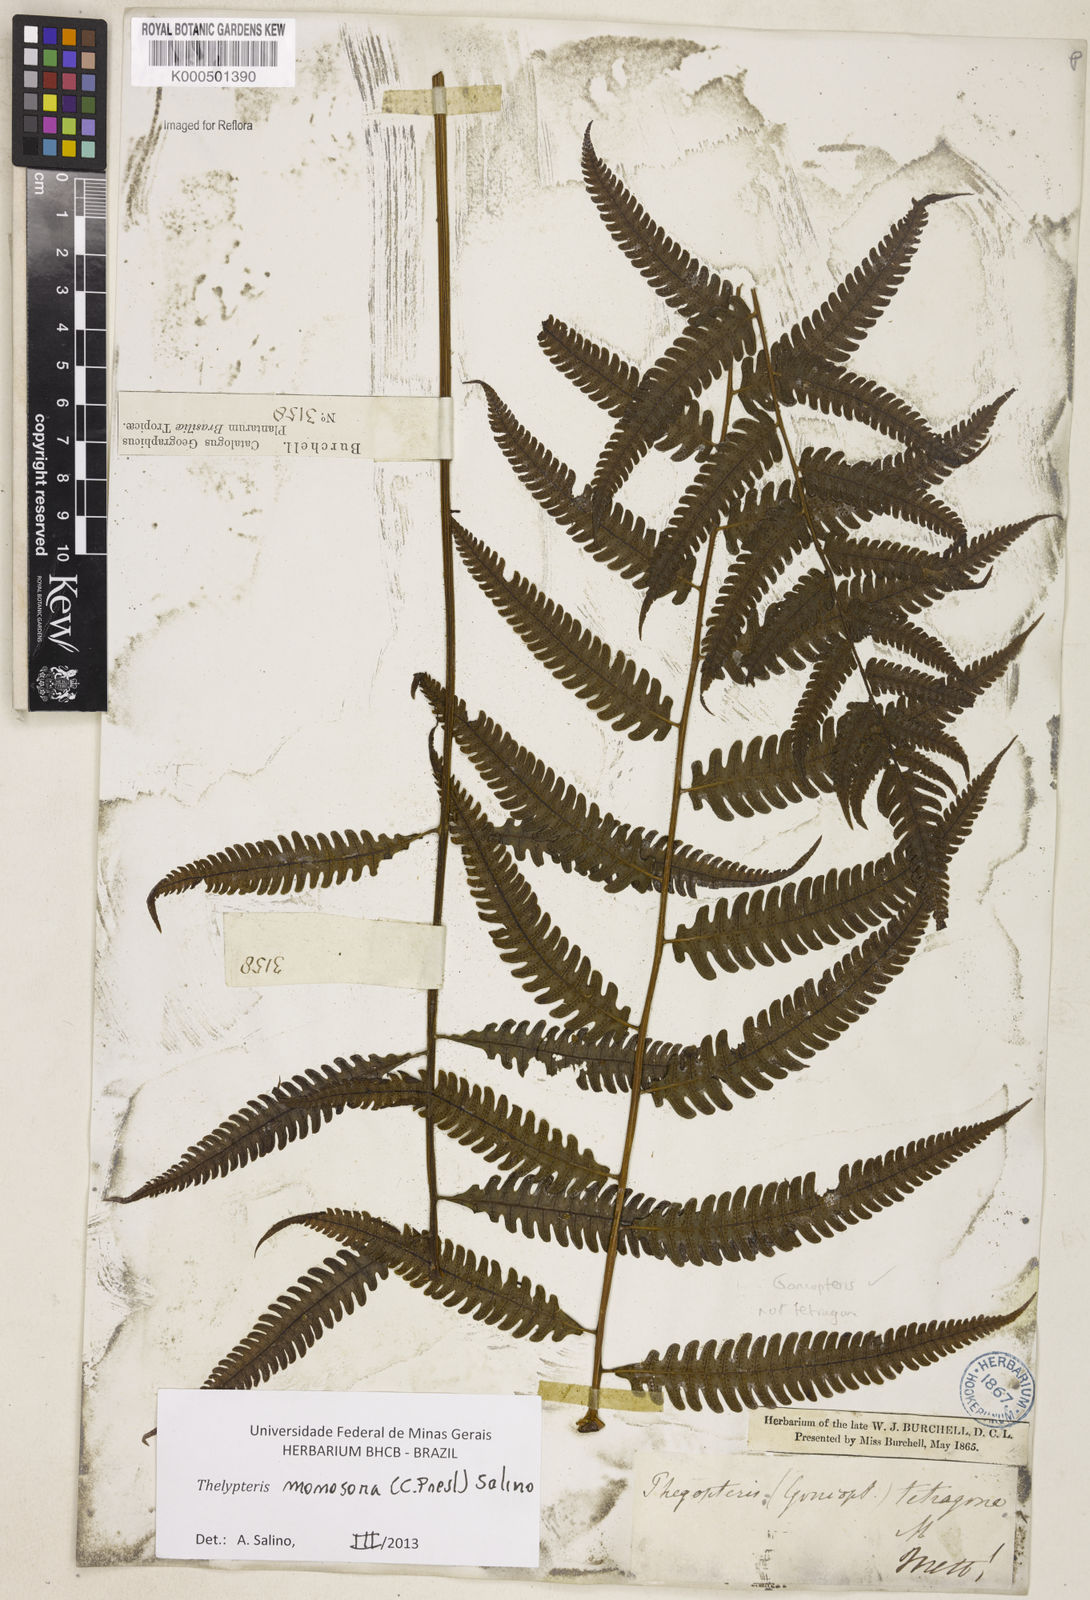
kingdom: Plantae
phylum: Tracheophyta
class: Polypodiopsida
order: Polypodiales
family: Thelypteridaceae
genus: Goniopteris
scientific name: Goniopteris
